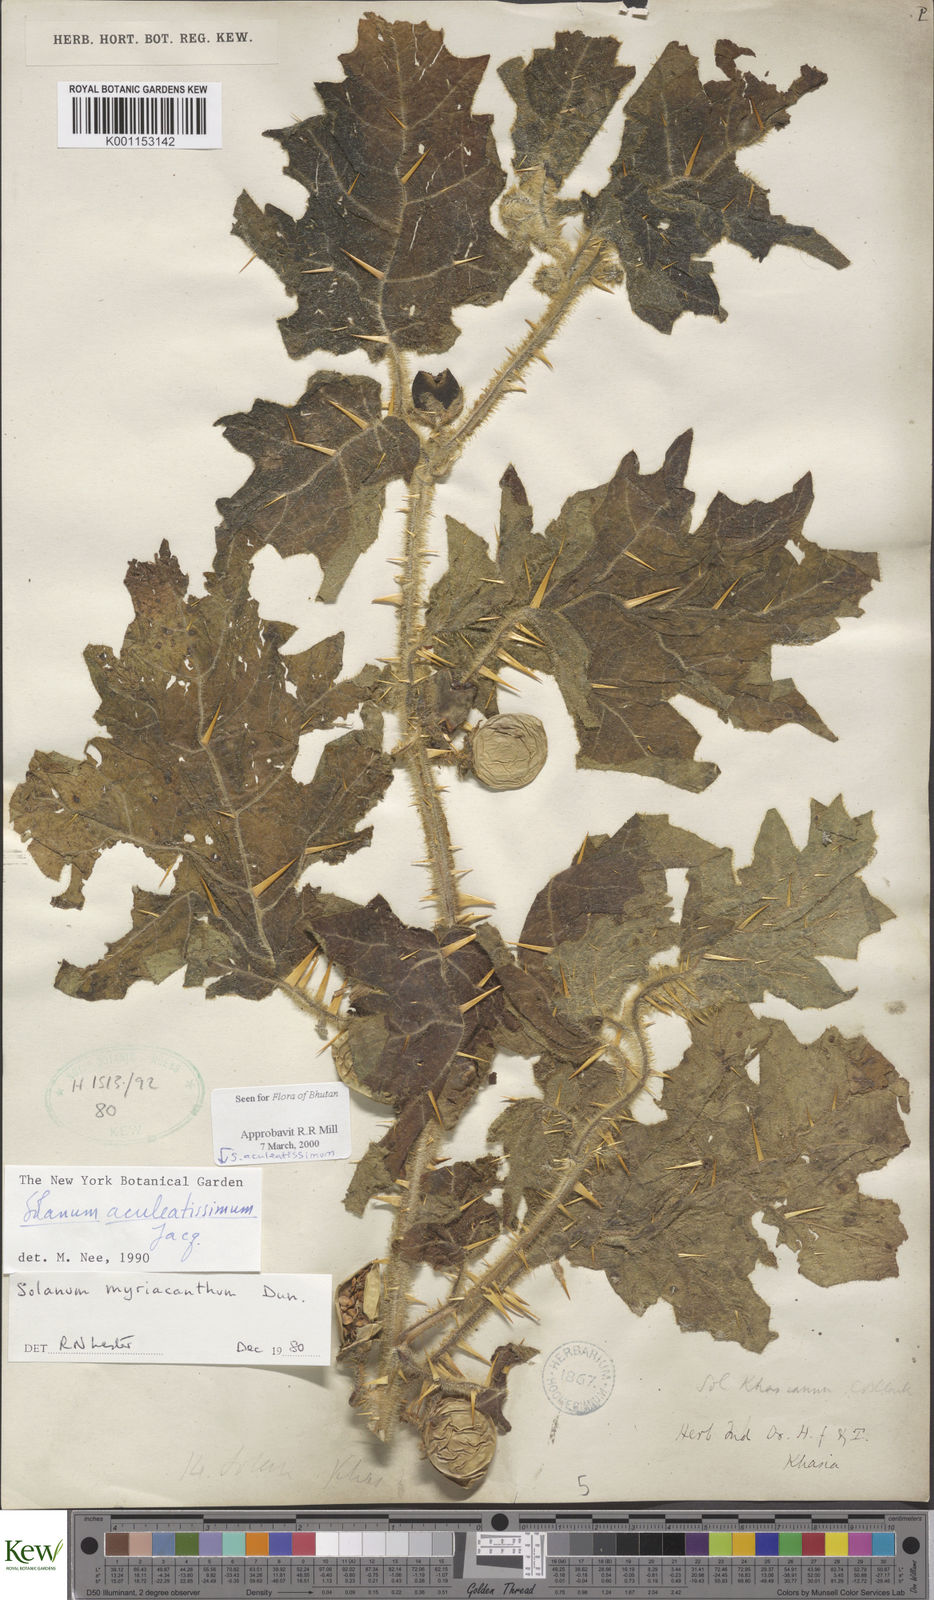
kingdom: Plantae
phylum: Tracheophyta
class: Magnoliopsida
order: Solanales
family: Solanaceae
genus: Solanum
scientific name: Solanum aculeatissimum
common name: Dutch eggplant
